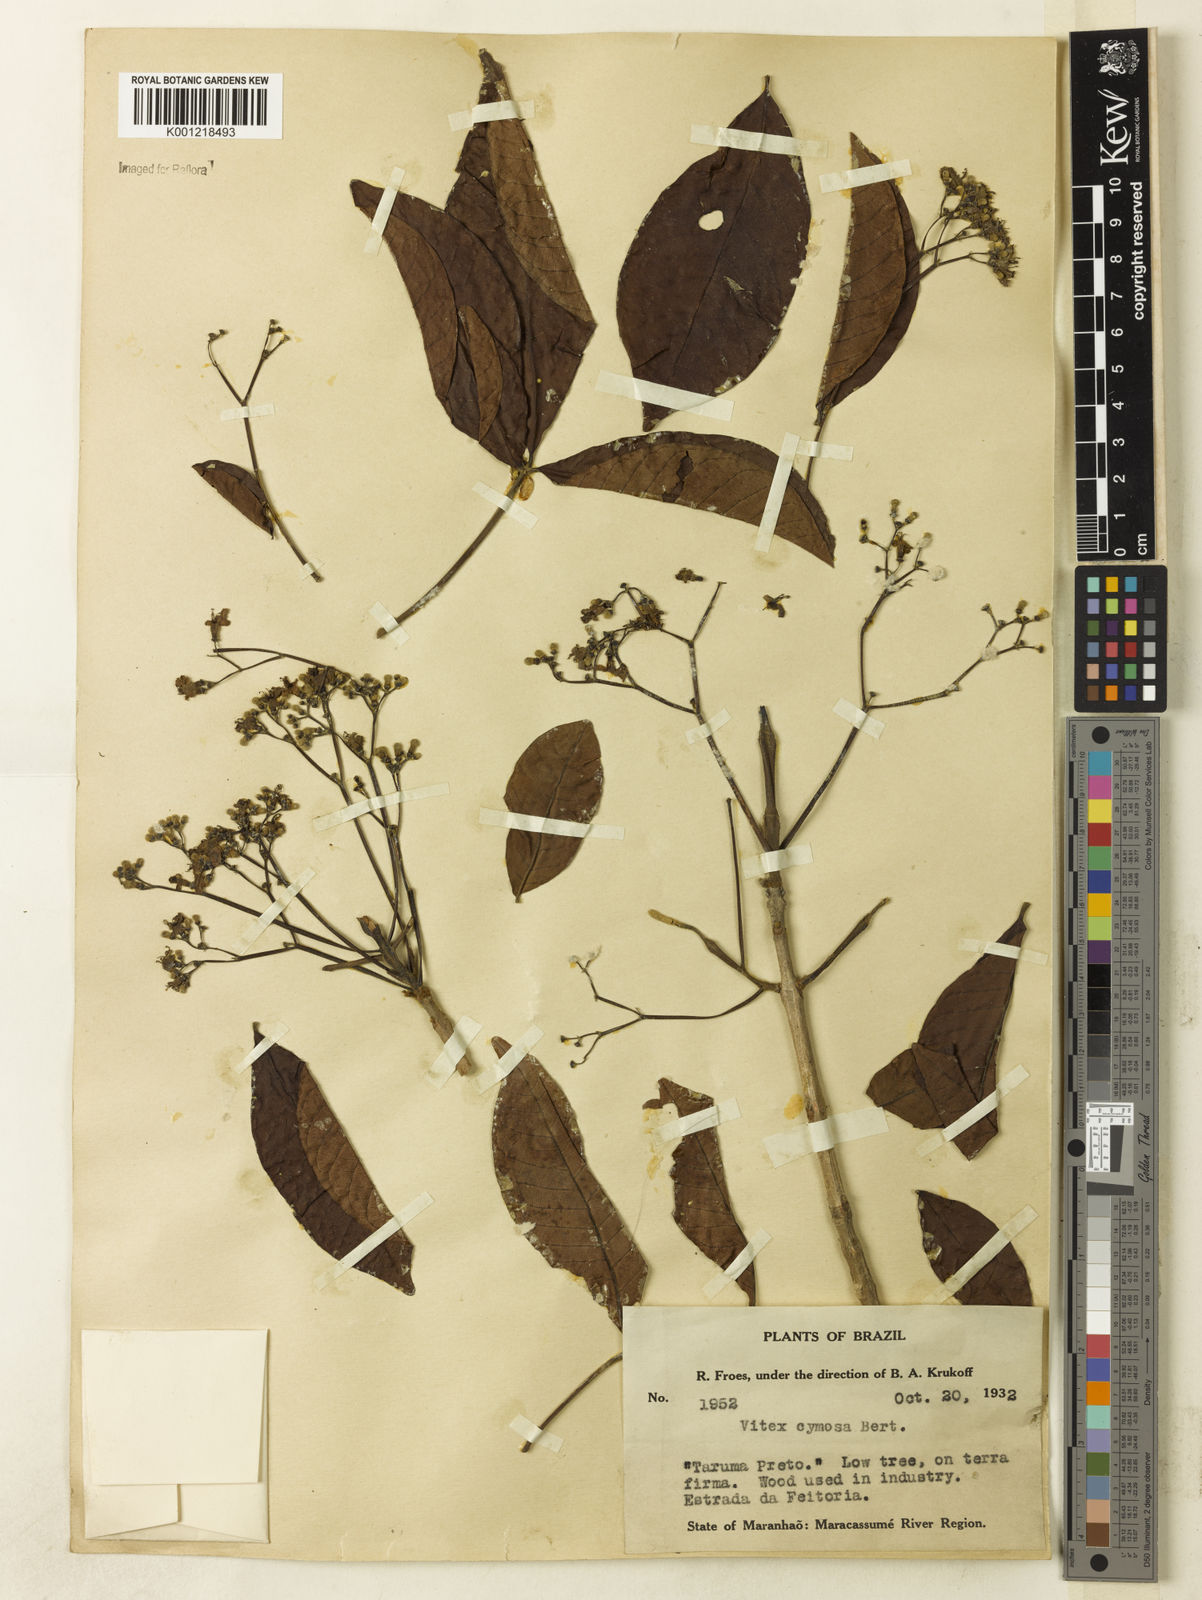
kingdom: Plantae
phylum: Tracheophyta
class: Magnoliopsida
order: Lamiales
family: Lamiaceae
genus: Vitex
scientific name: Vitex cymosa
